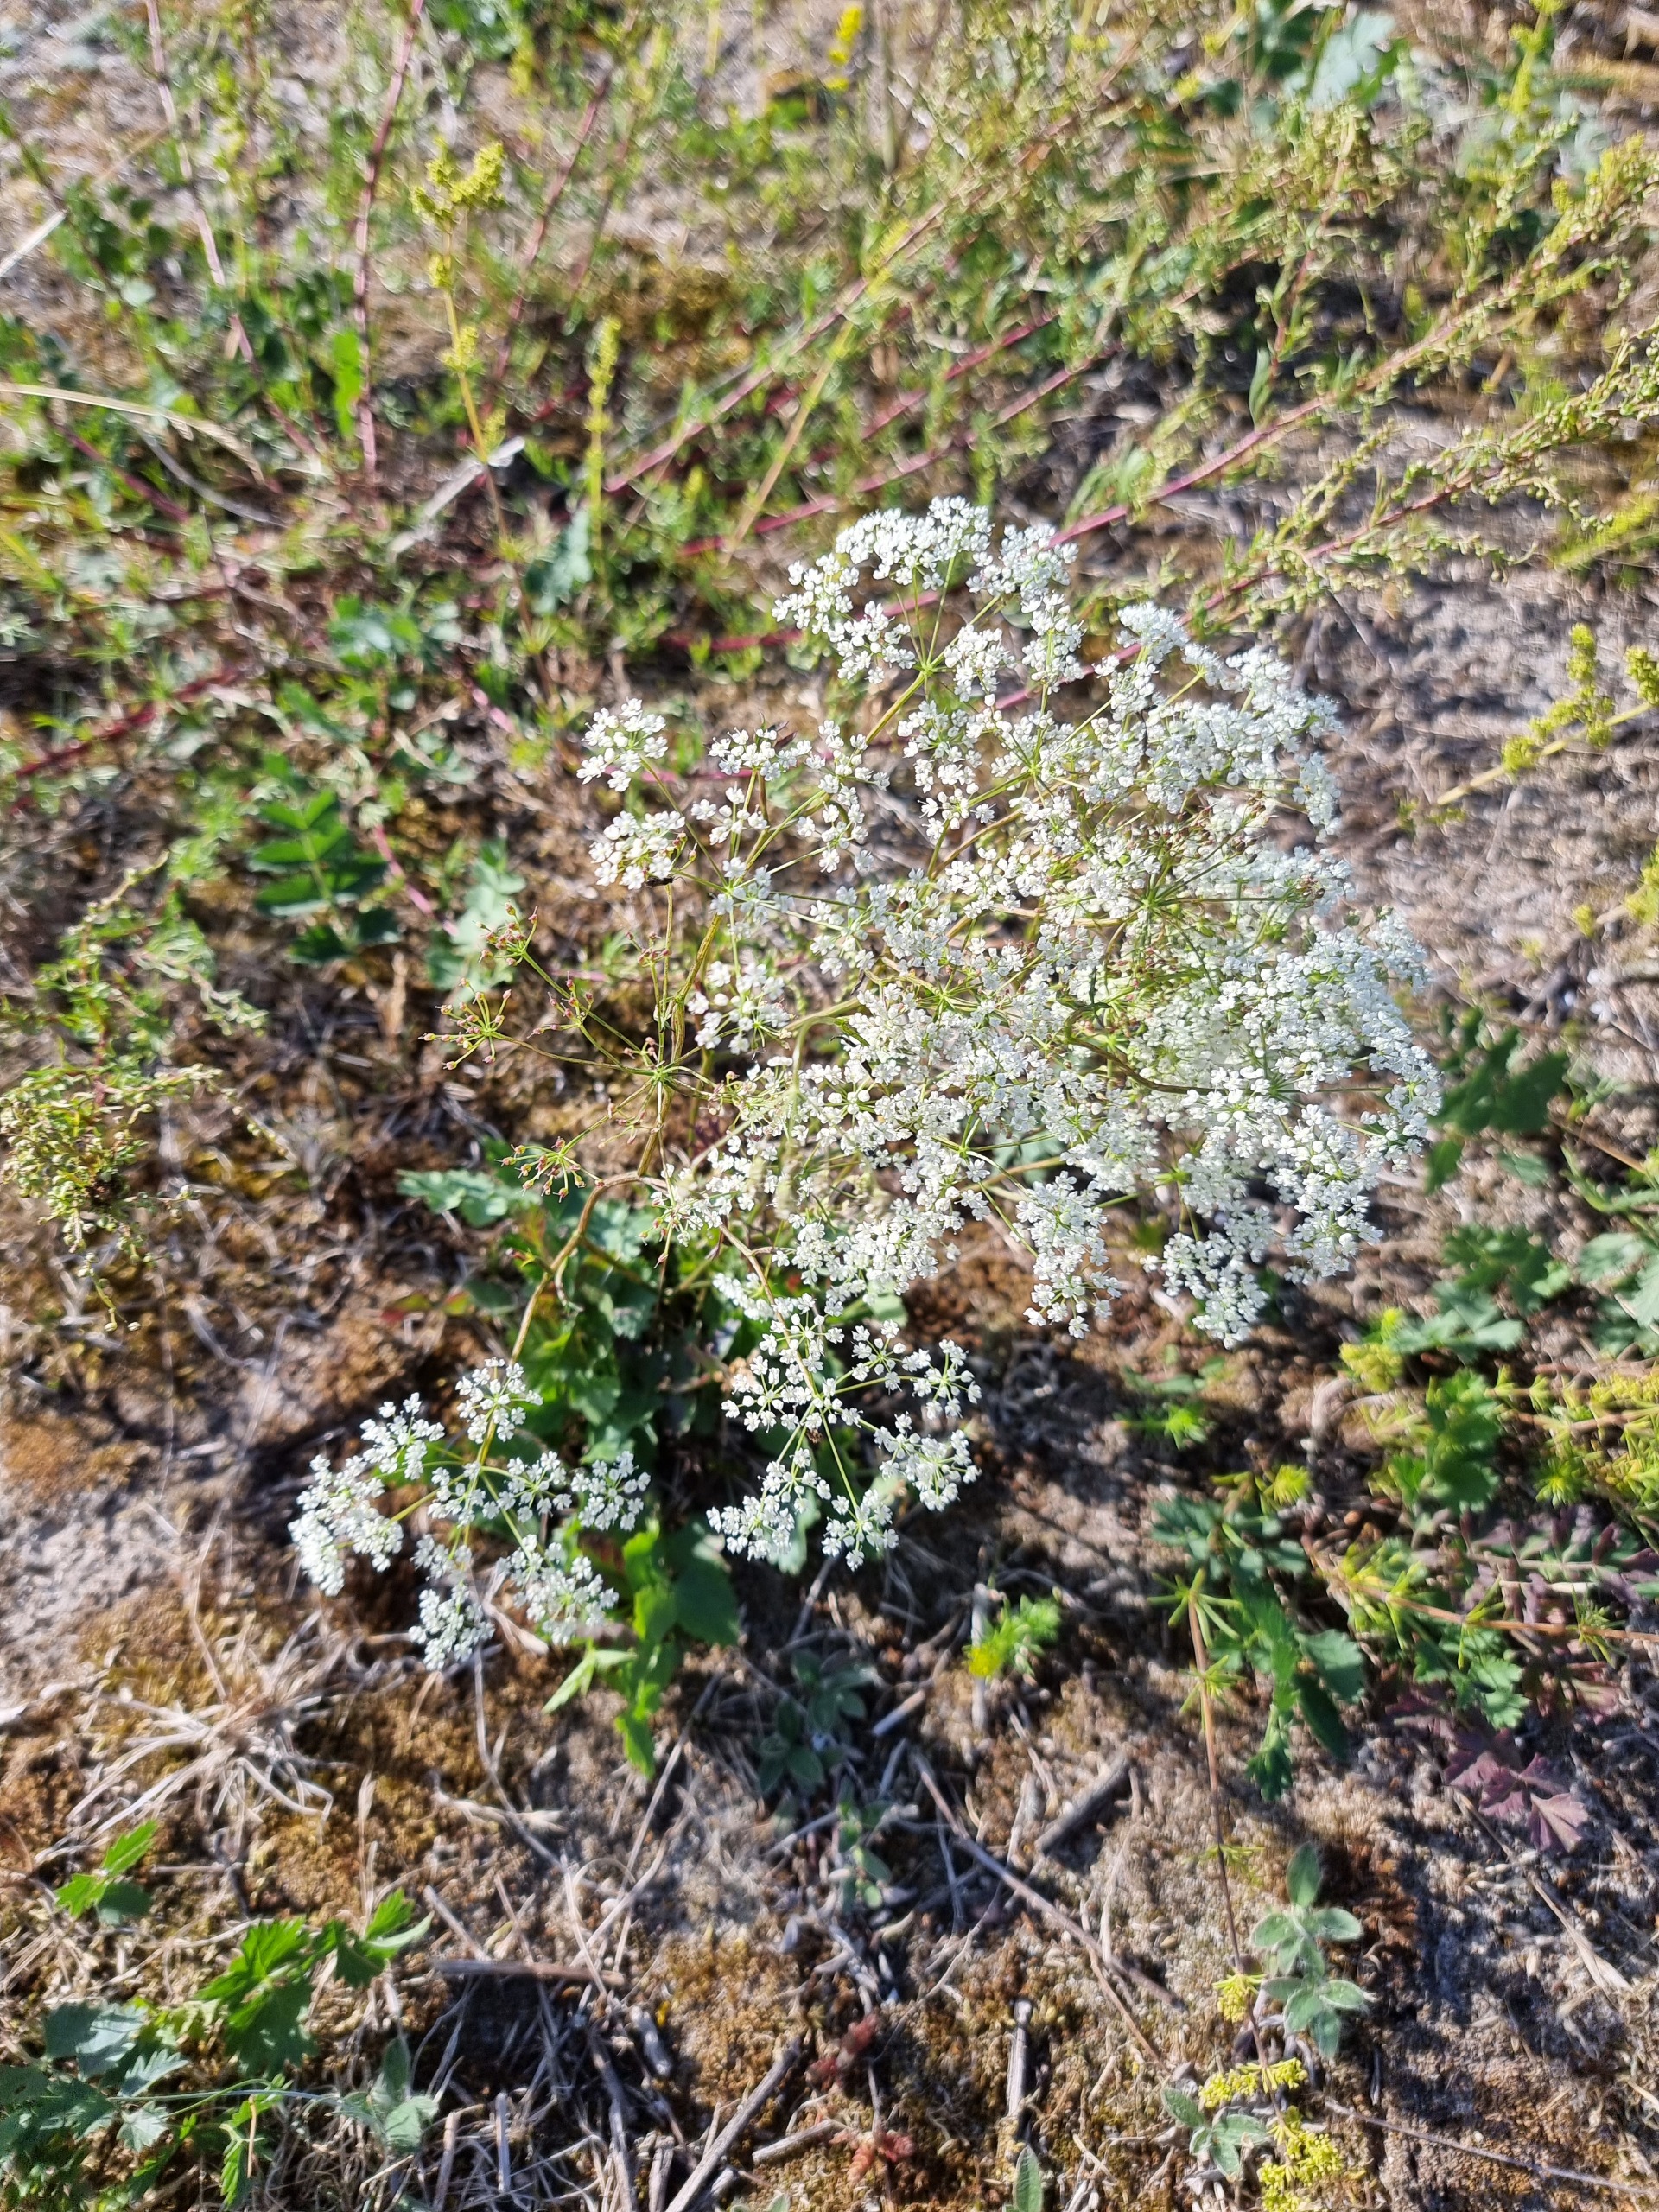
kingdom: Plantae
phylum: Tracheophyta
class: Magnoliopsida
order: Apiales
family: Apiaceae
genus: Pimpinella
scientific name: Pimpinella saxifraga
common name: Almindelig pimpinelle
